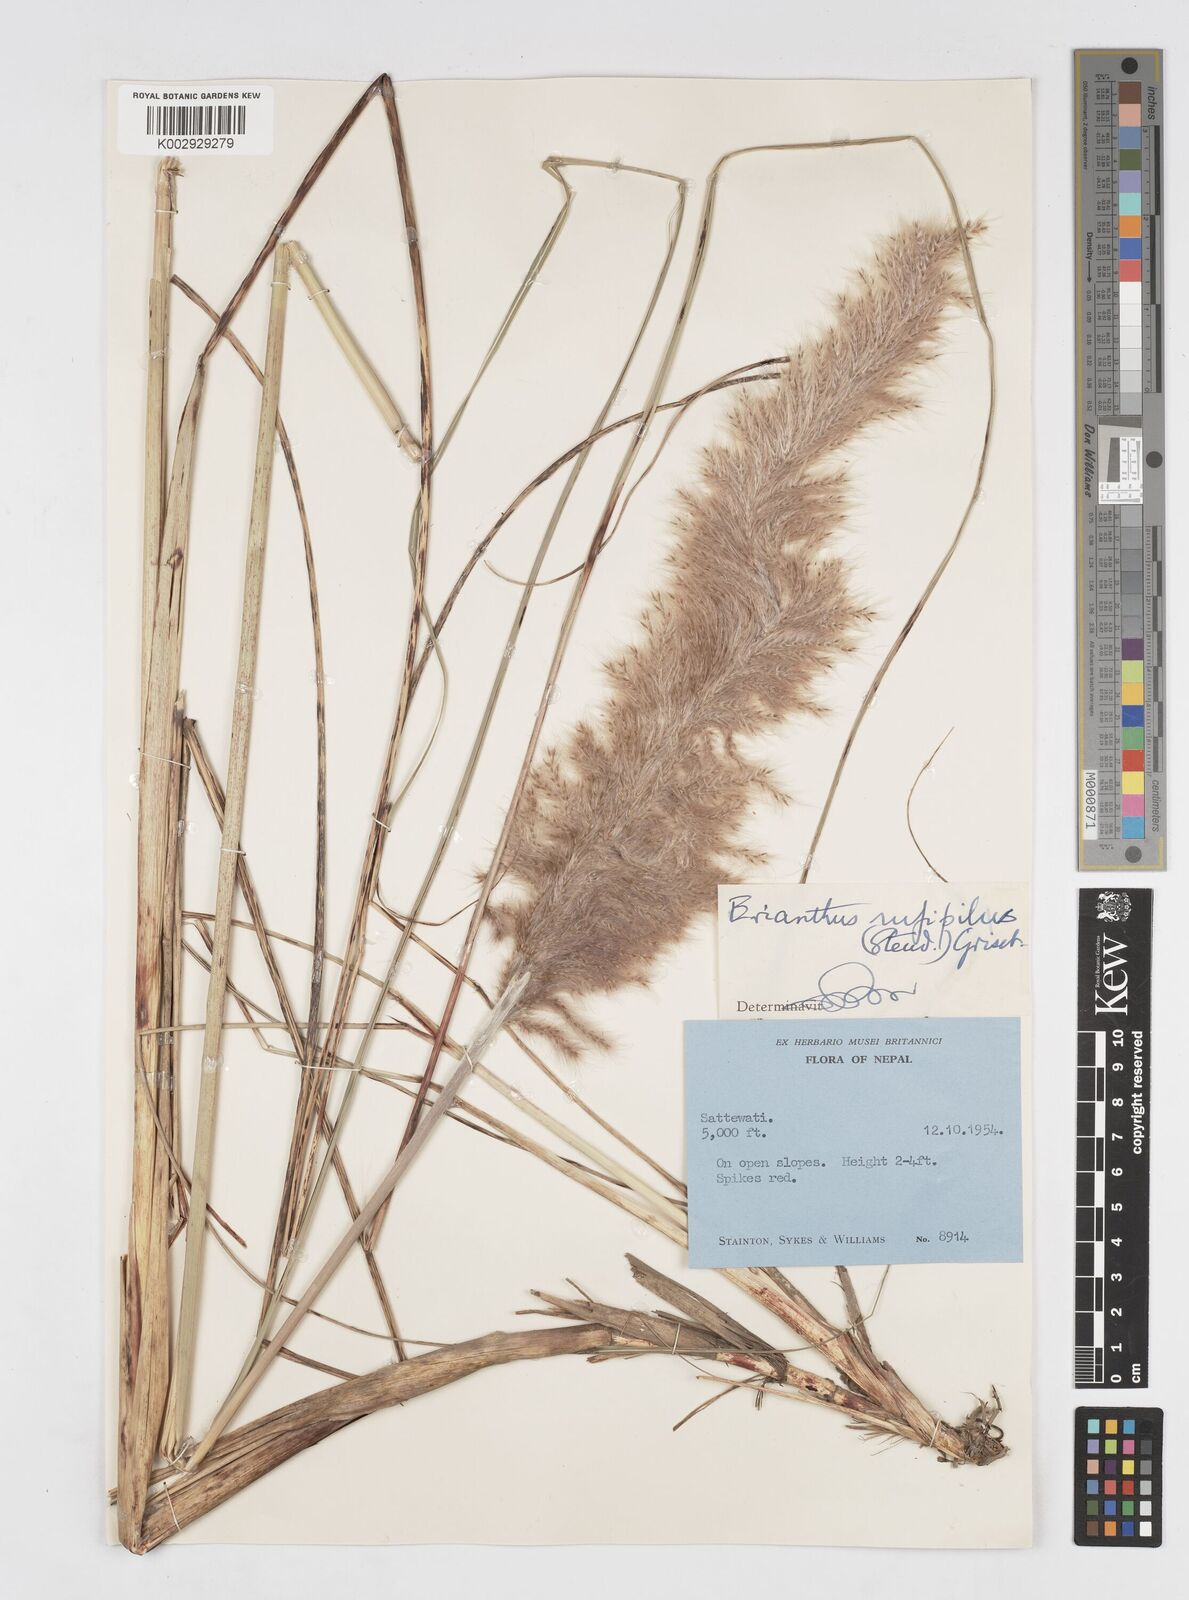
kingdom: Plantae
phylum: Tracheophyta
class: Liliopsida
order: Poales
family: Poaceae
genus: Tripidium
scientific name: Tripidium rufipilum
